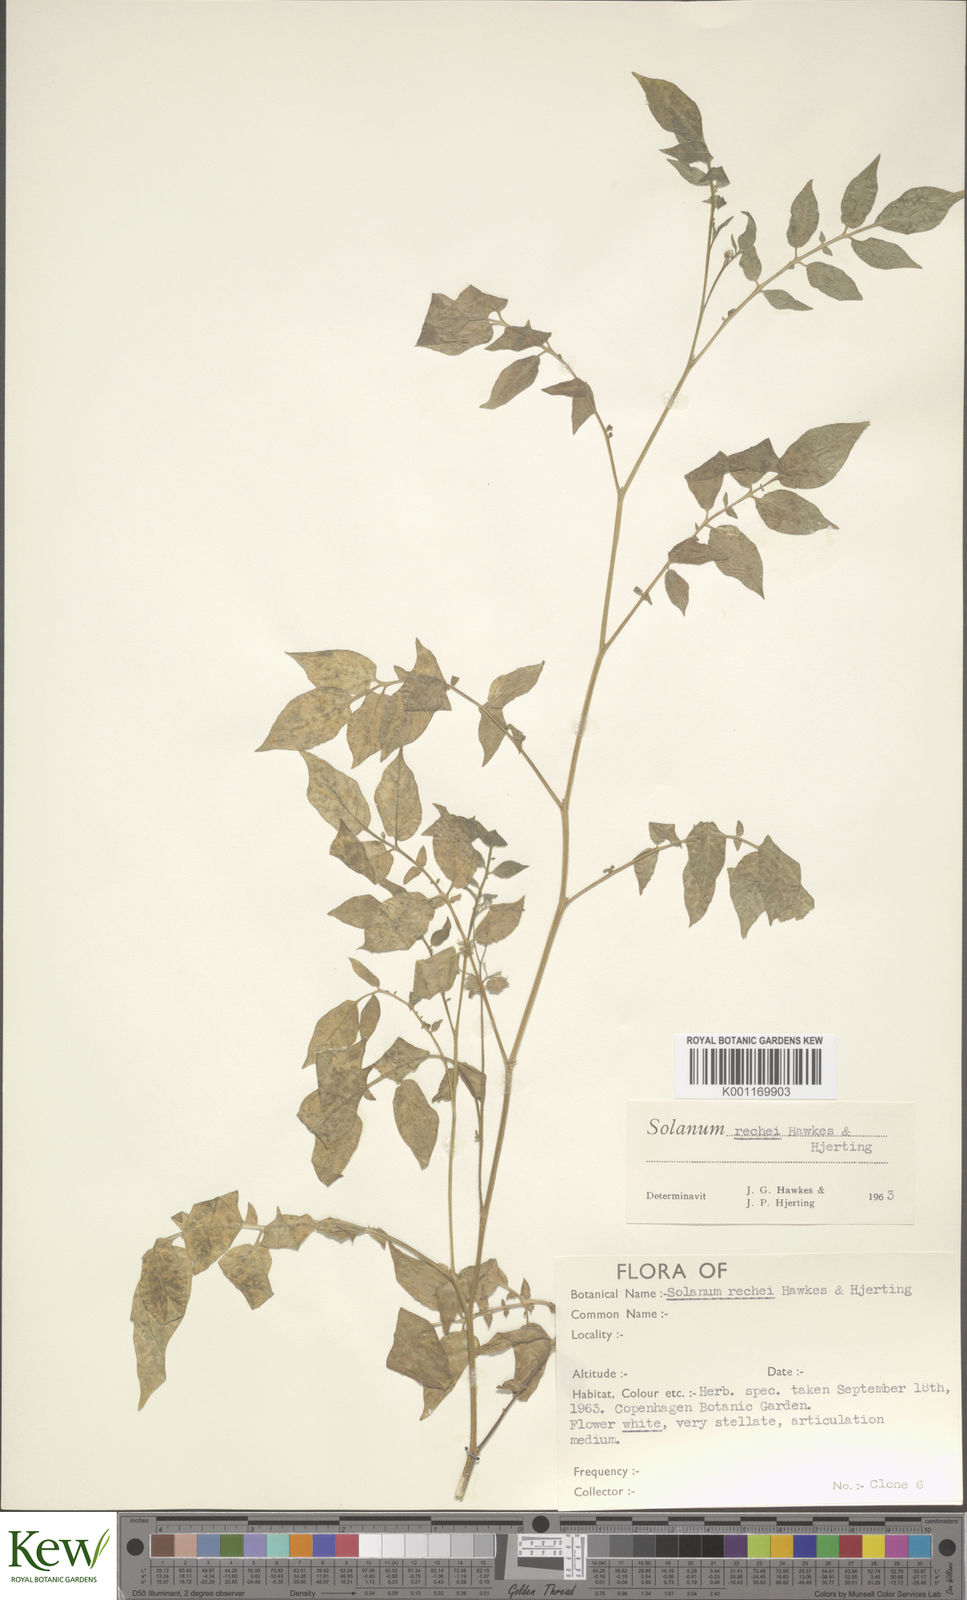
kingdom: Plantae
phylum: Tracheophyta
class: Magnoliopsida
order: Solanales
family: Solanaceae
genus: Solanum
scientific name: Solanum rechei
